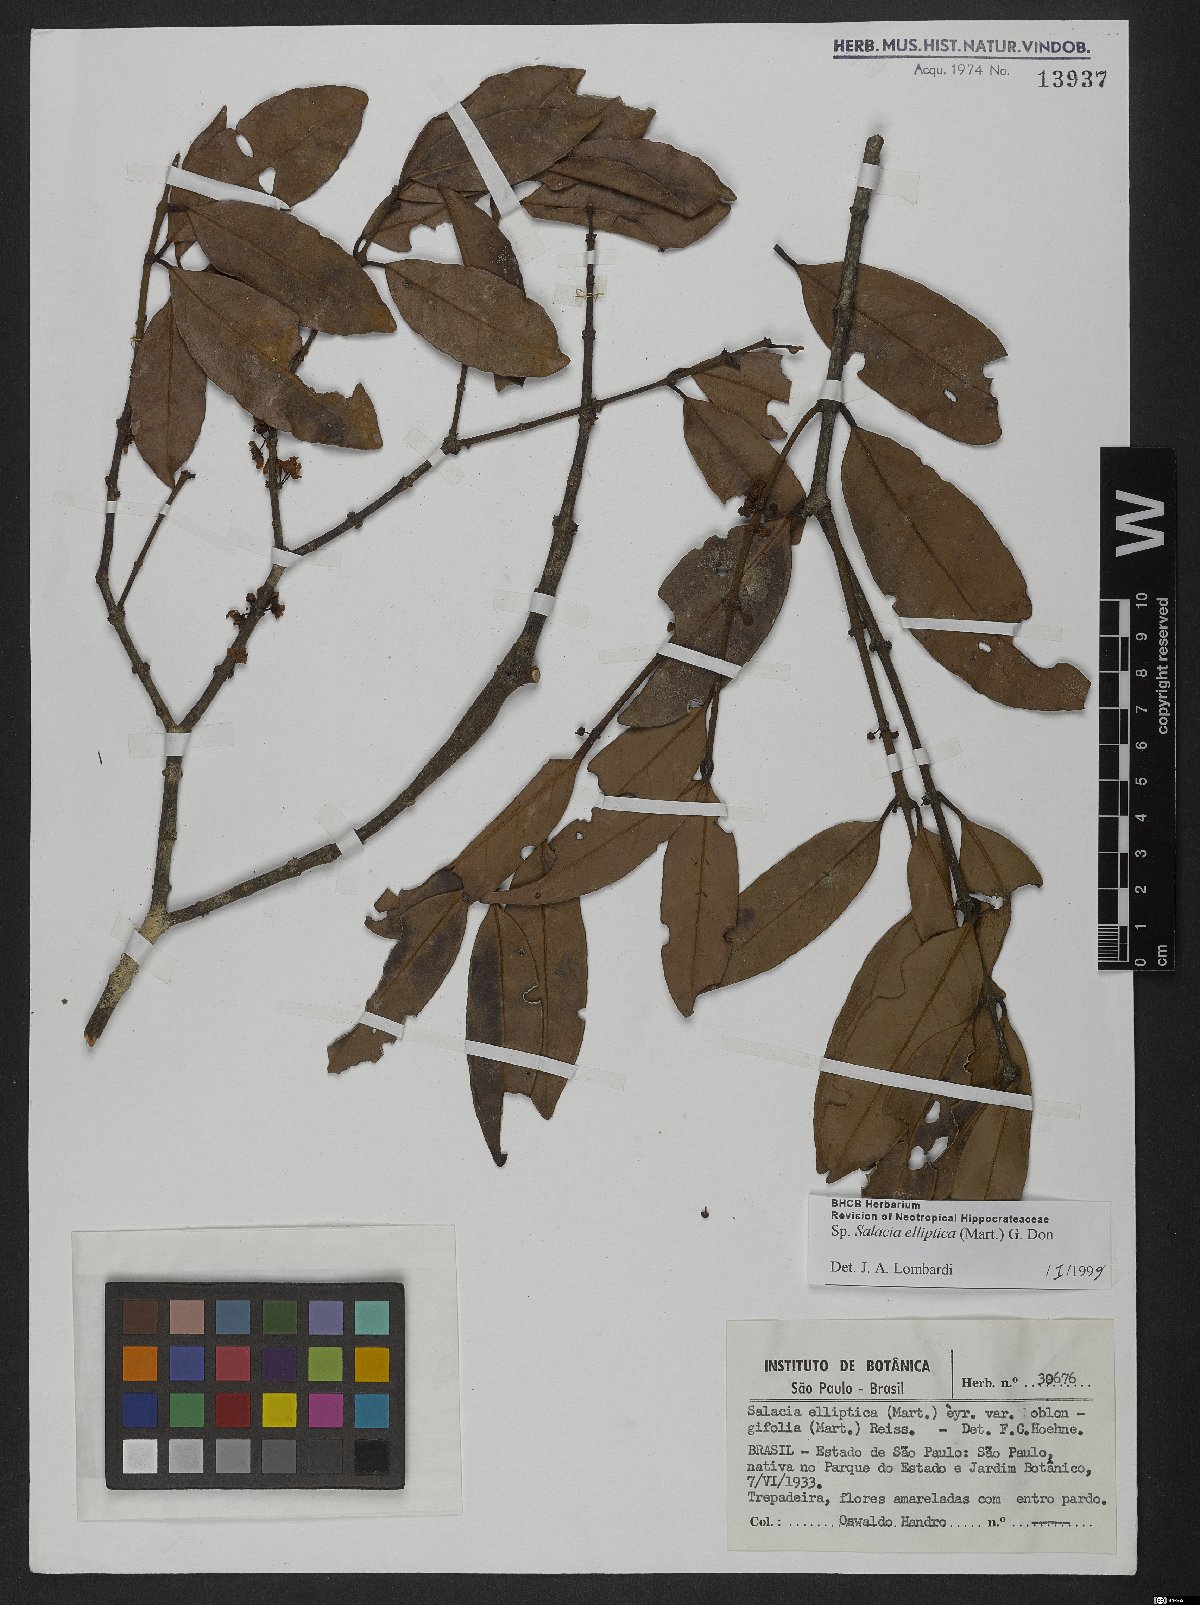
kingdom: Plantae
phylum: Tracheophyta
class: Magnoliopsida
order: Celastrales
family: Celastraceae
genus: Salacia
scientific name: Salacia elliptica
